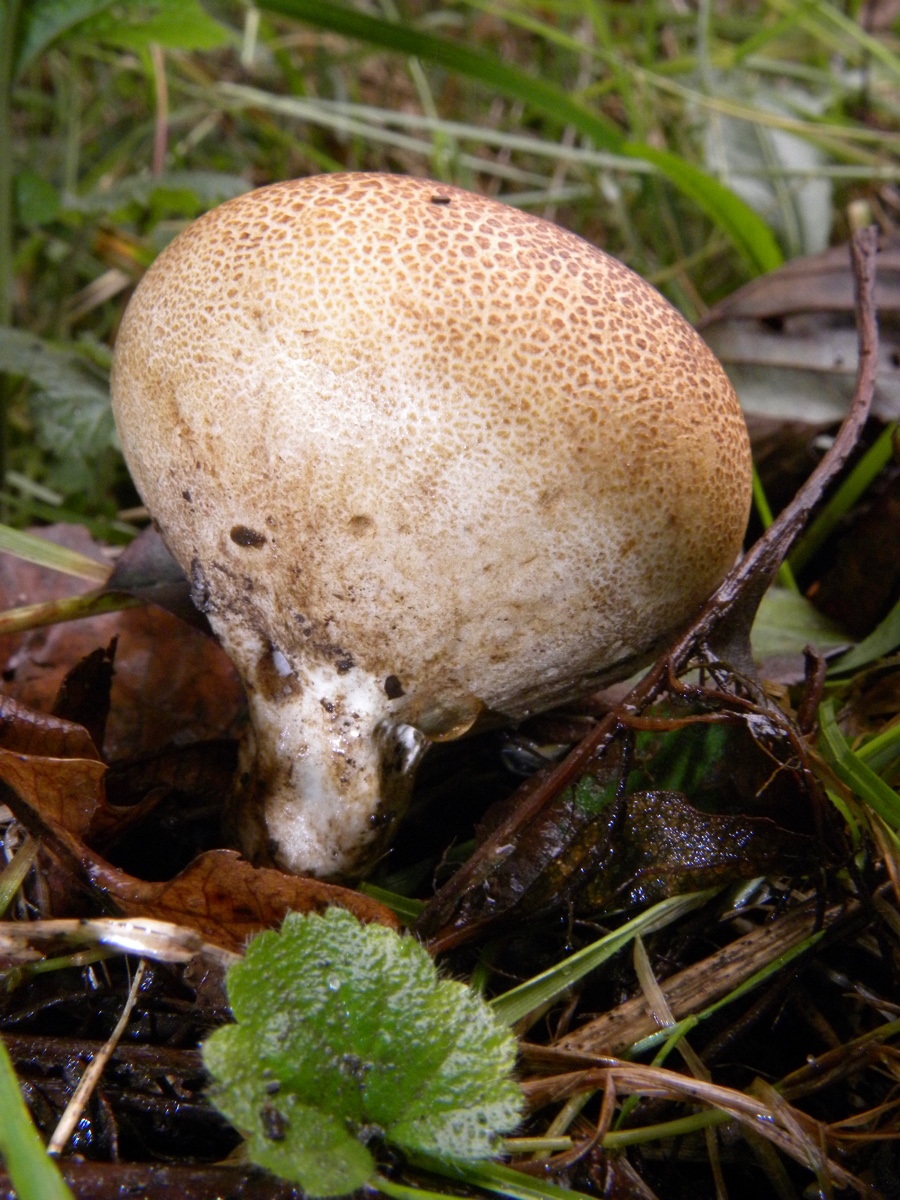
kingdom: Fungi
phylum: Basidiomycota
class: Agaricomycetes
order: Boletales
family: Sclerodermataceae
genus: Scleroderma
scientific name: Scleroderma
